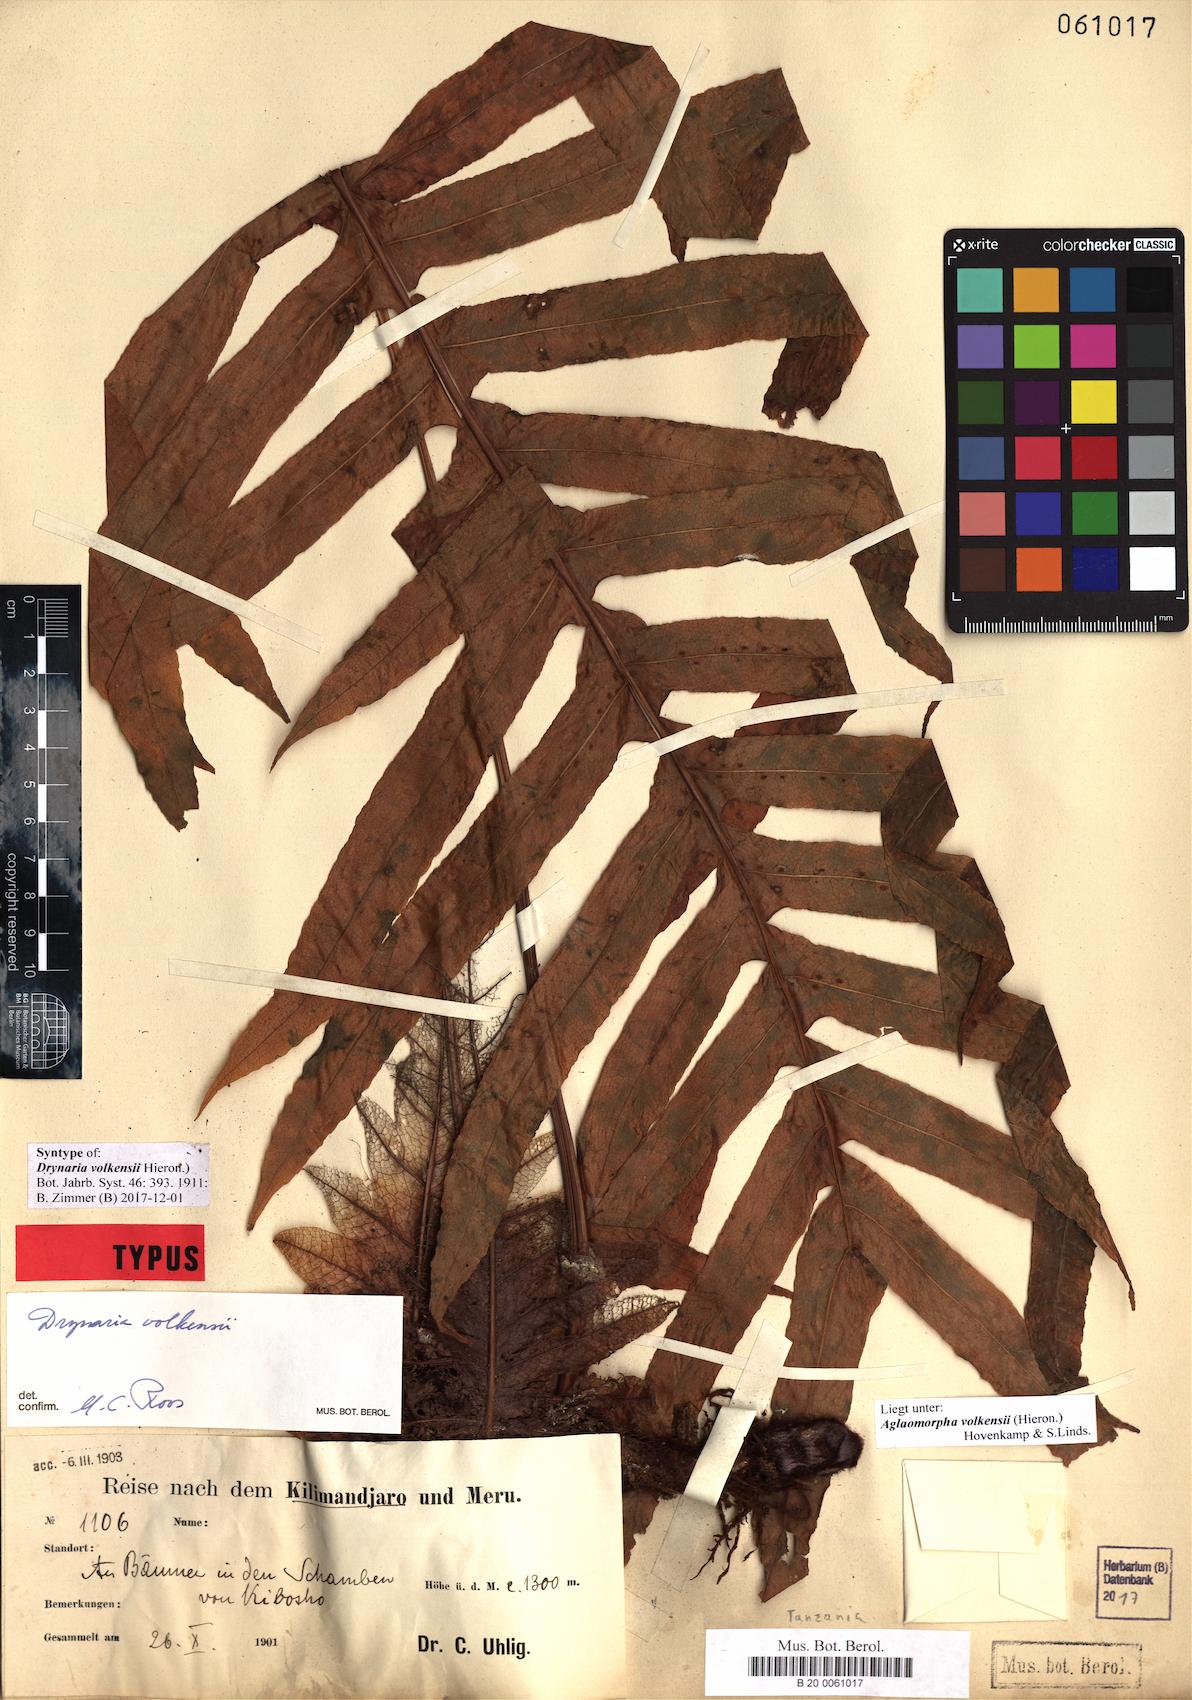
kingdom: Plantae
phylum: Tracheophyta
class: Polypodiopsida
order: Polypodiales
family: Polypodiaceae
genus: Drynaria
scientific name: Drynaria volkensii
